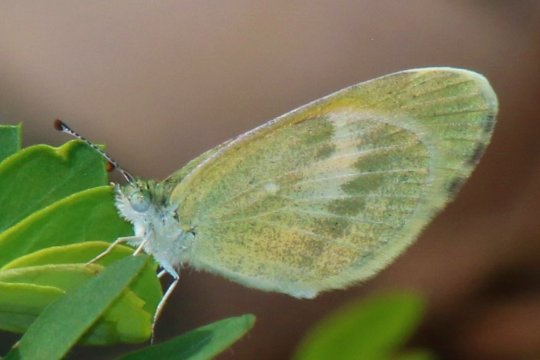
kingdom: Animalia
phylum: Arthropoda
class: Insecta
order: Lepidoptera
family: Pieridae
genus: Nathalis
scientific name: Nathalis iole
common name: Dainty Sulphur
